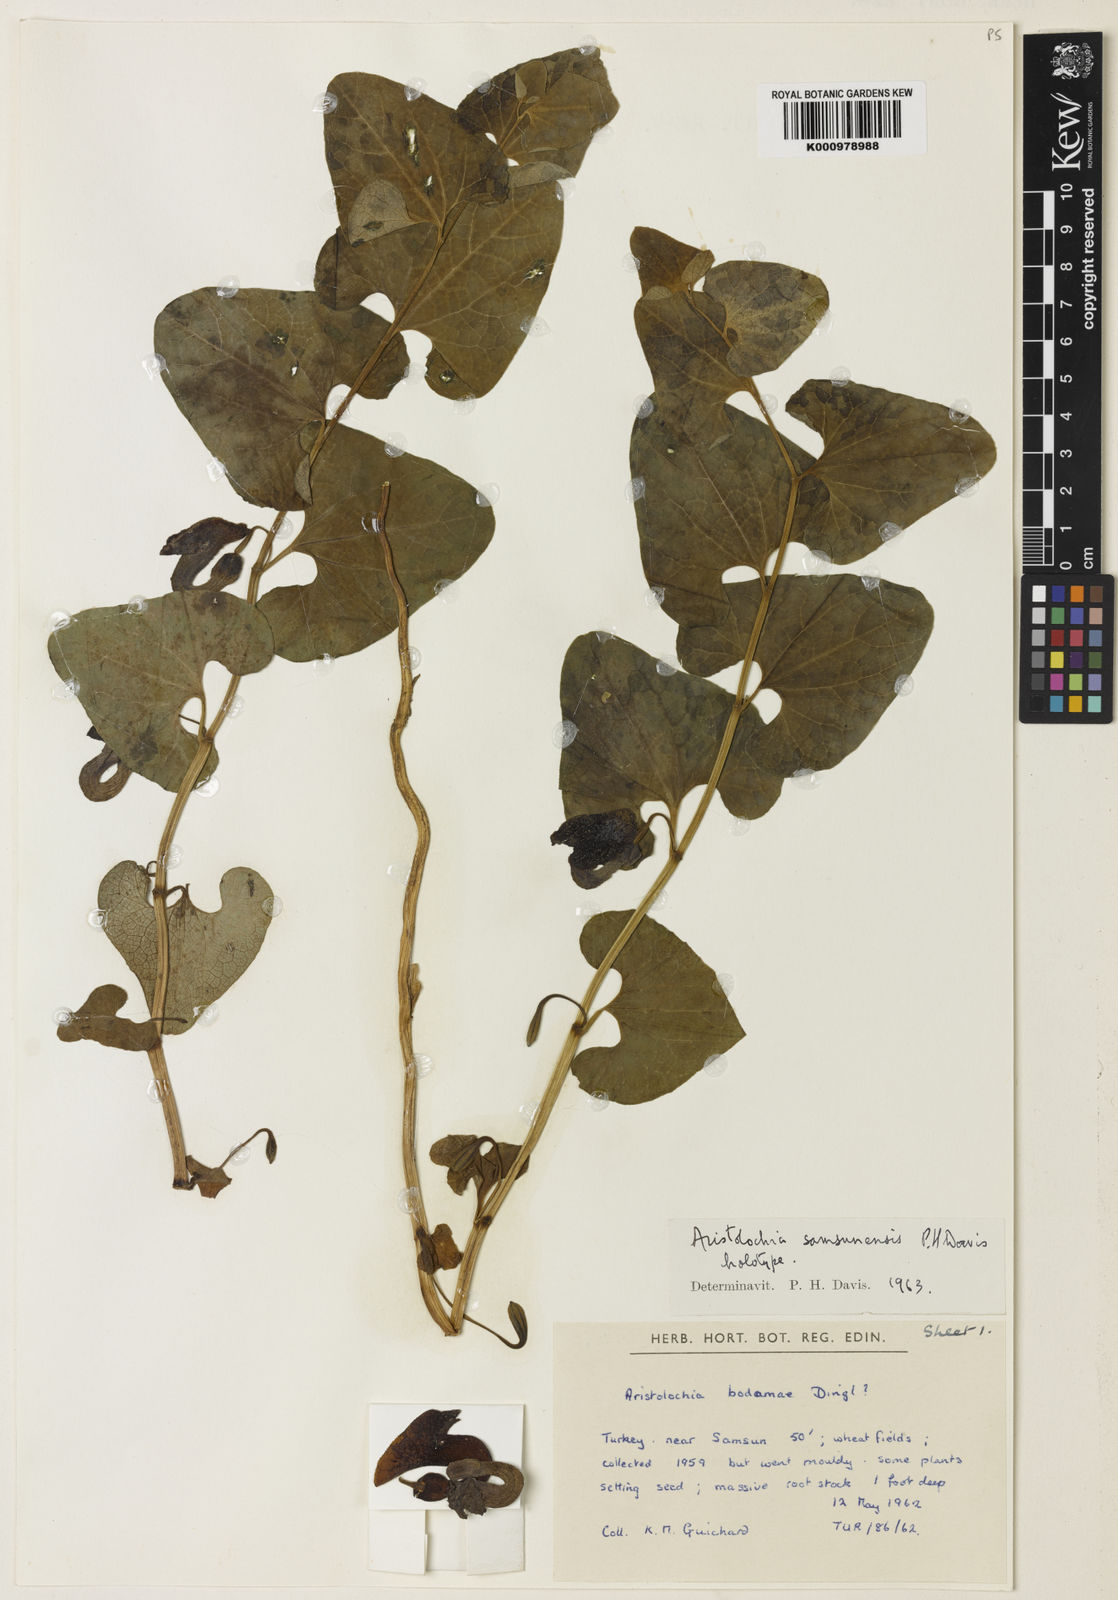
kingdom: Plantae
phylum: Tracheophyta
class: Magnoliopsida
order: Piperales
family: Aristolochiaceae
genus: Aristolochia
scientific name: Aristolochia bodamae
